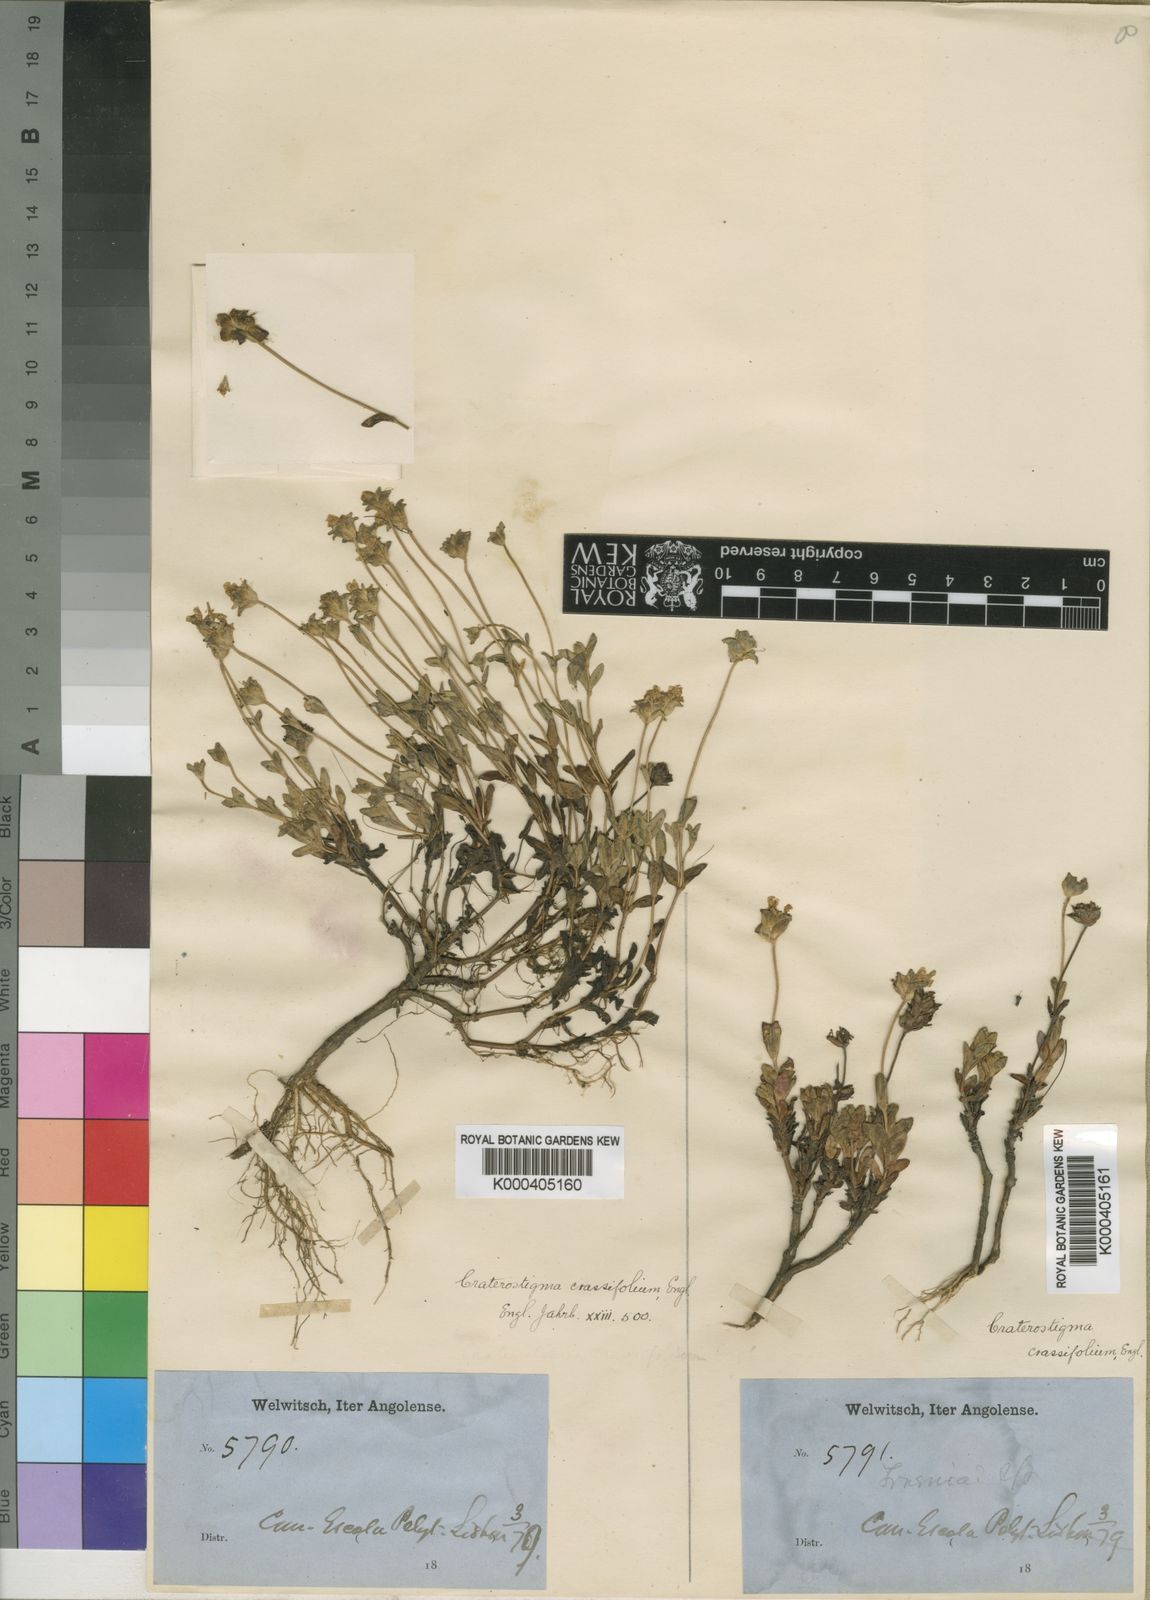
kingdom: Plantae
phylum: Tracheophyta
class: Magnoliopsida
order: Lamiales
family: Linderniaceae
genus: Lindernia
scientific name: Lindernia crassifolia
